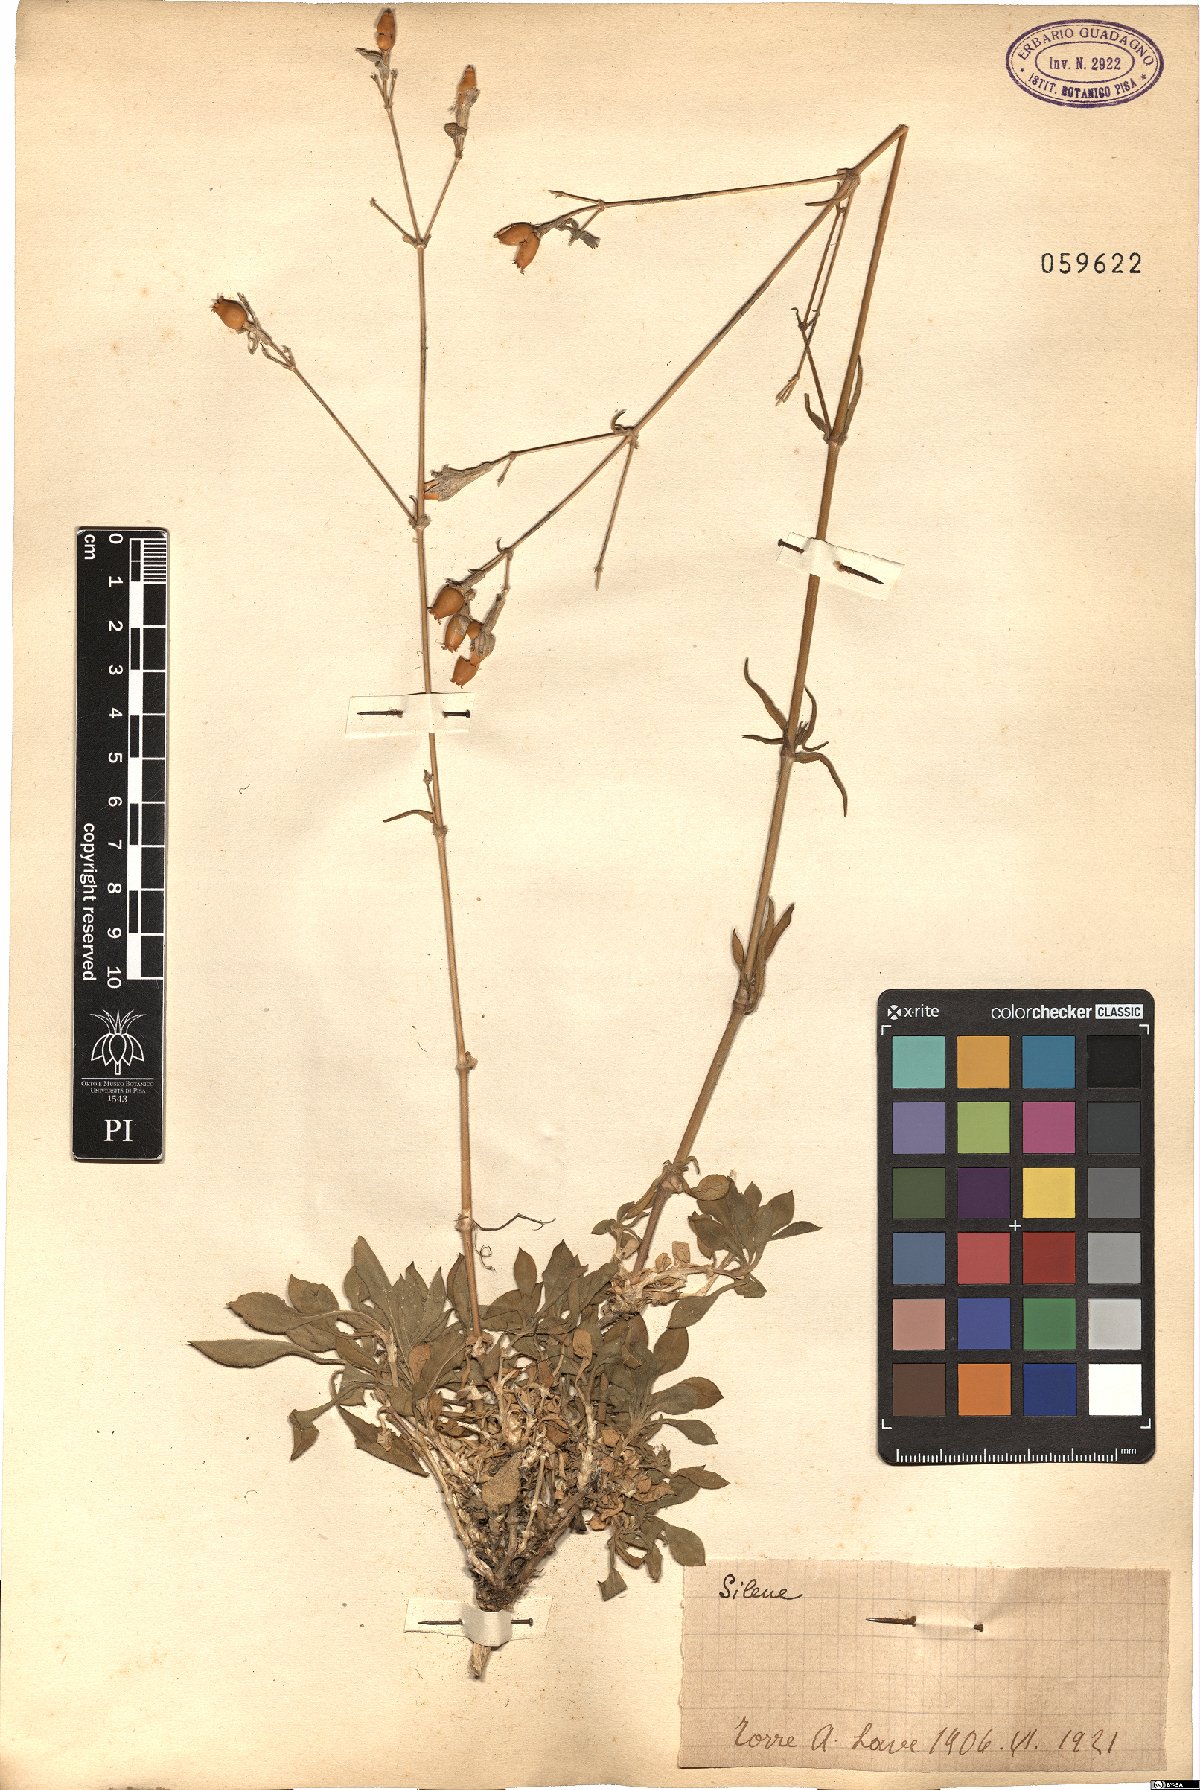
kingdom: Plantae
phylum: Tracheophyta
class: Magnoliopsida
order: Caryophyllales
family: Caryophyllaceae
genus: Silene
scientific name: Silene
